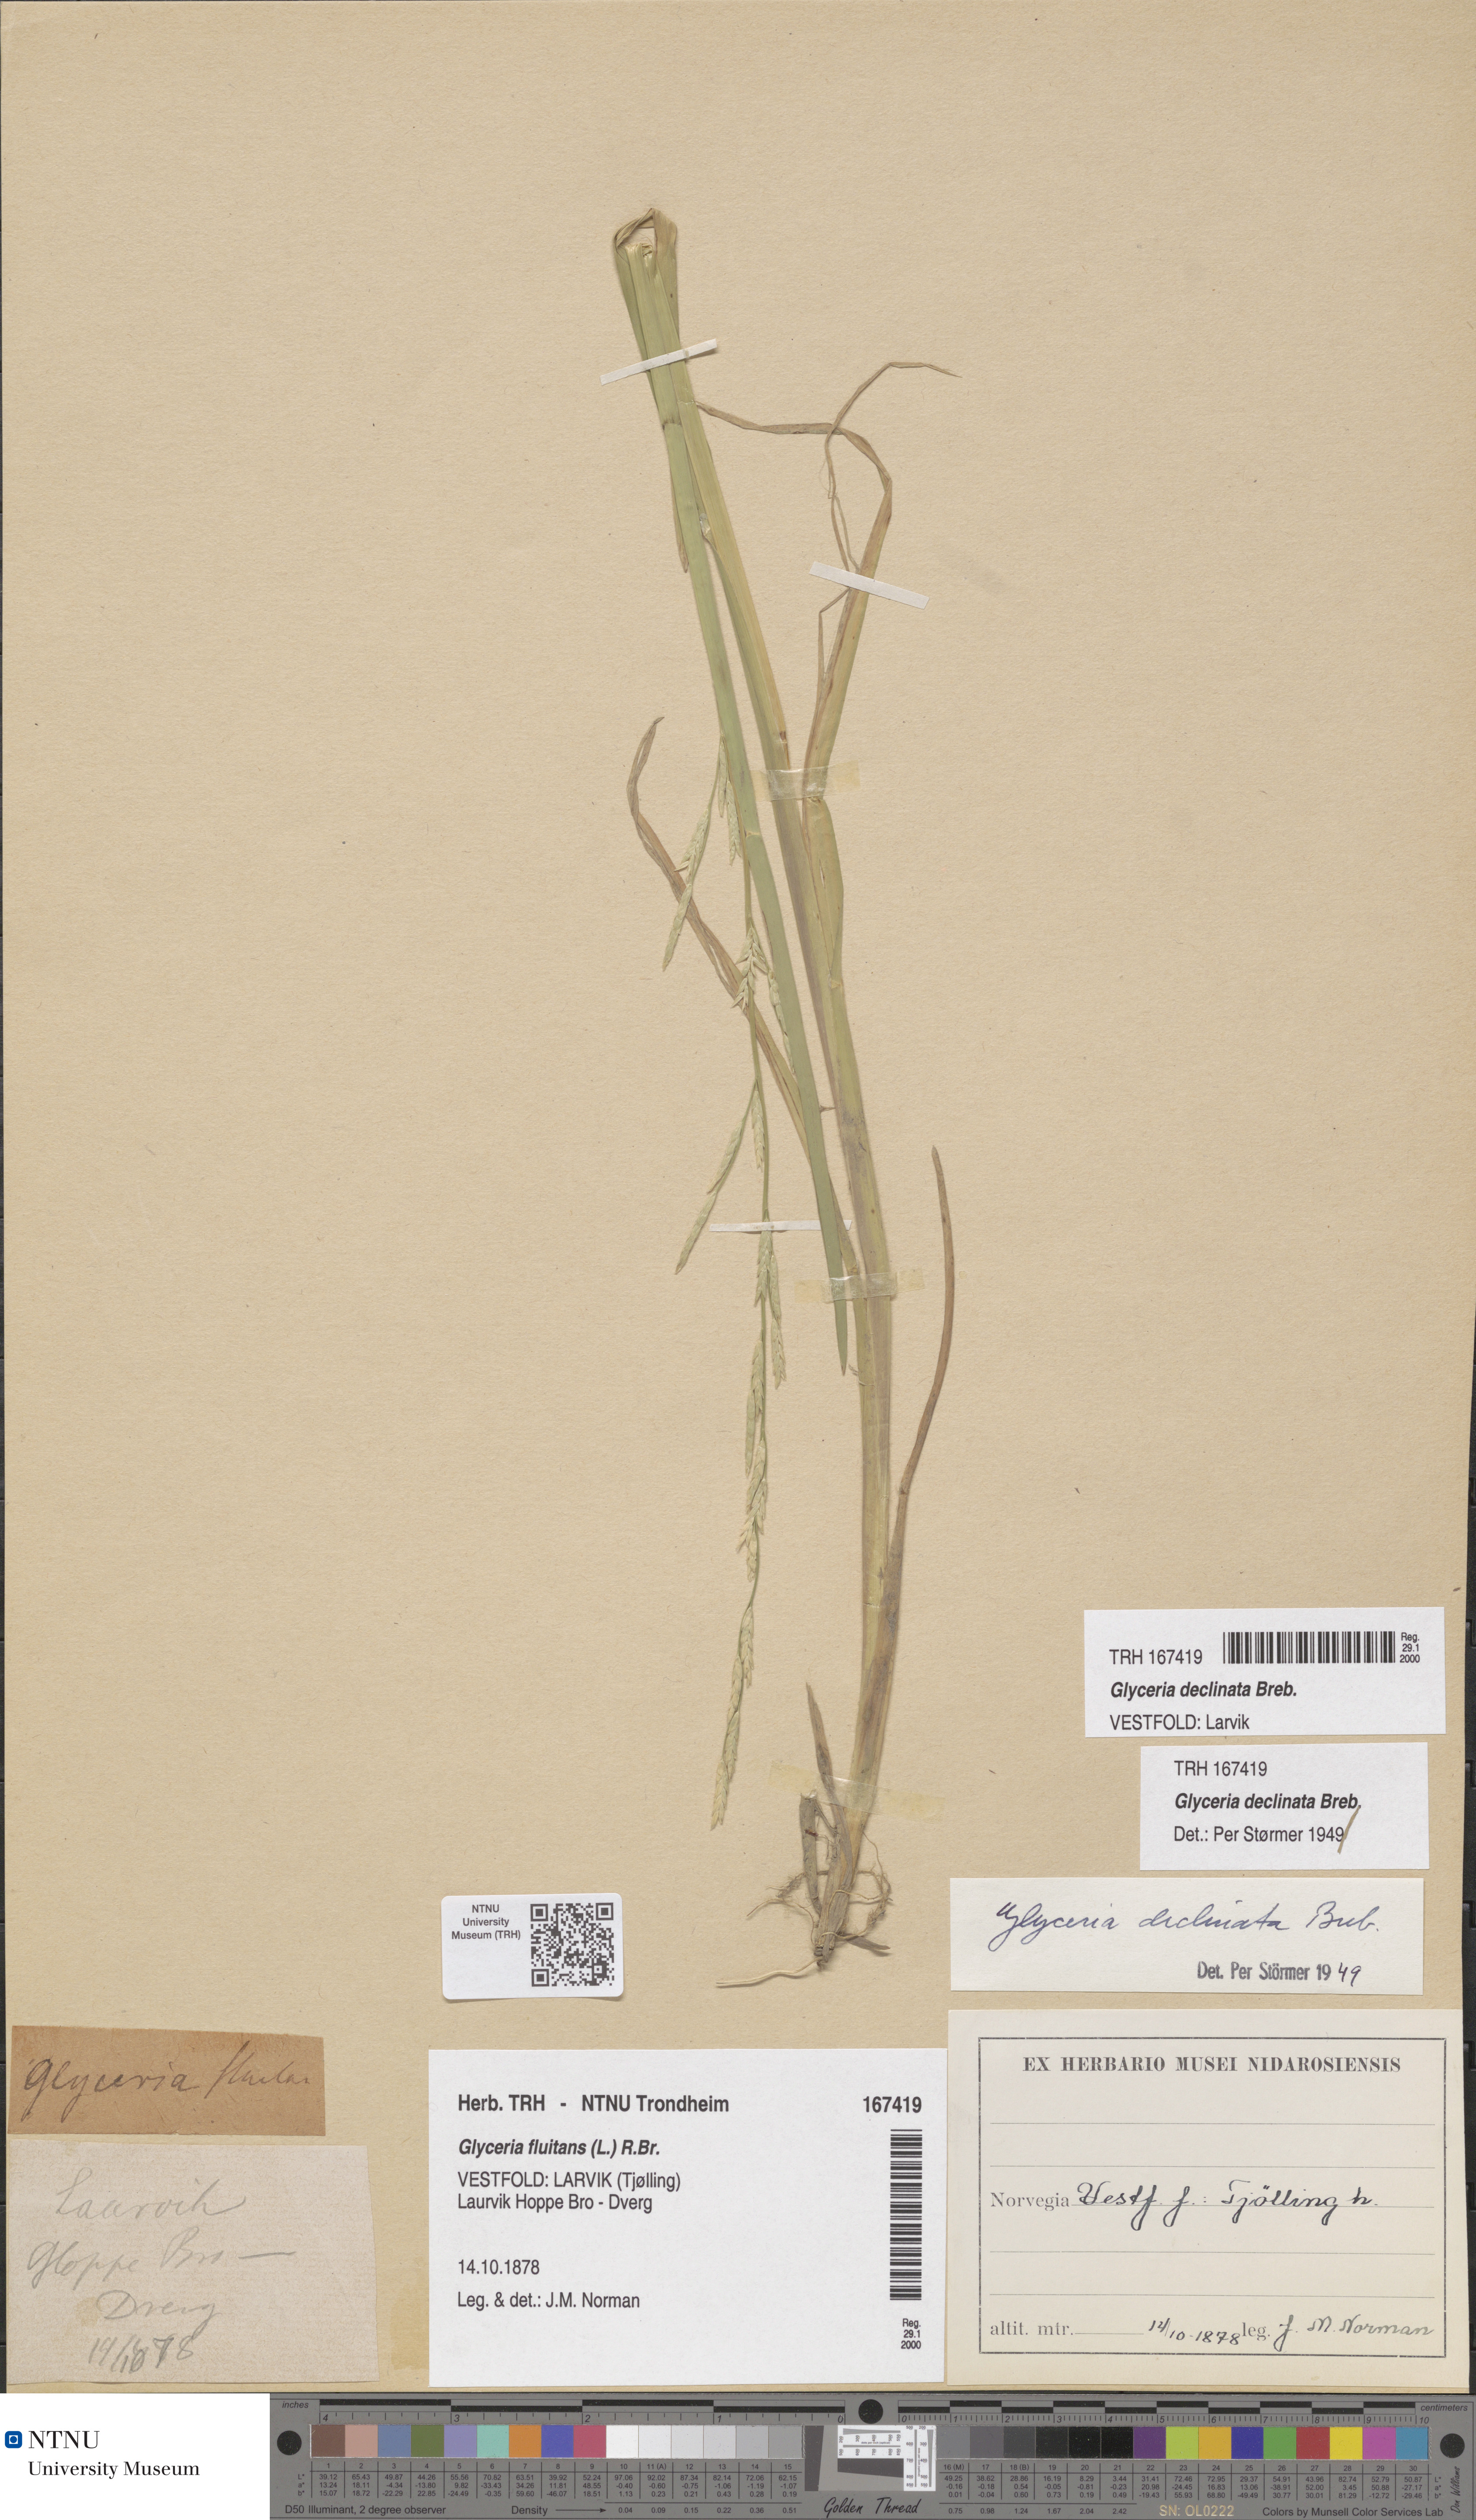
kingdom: Plantae
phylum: Tracheophyta
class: Liliopsida
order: Poales
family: Poaceae
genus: Glyceria
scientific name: Glyceria declinata
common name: Small sweet-grass
